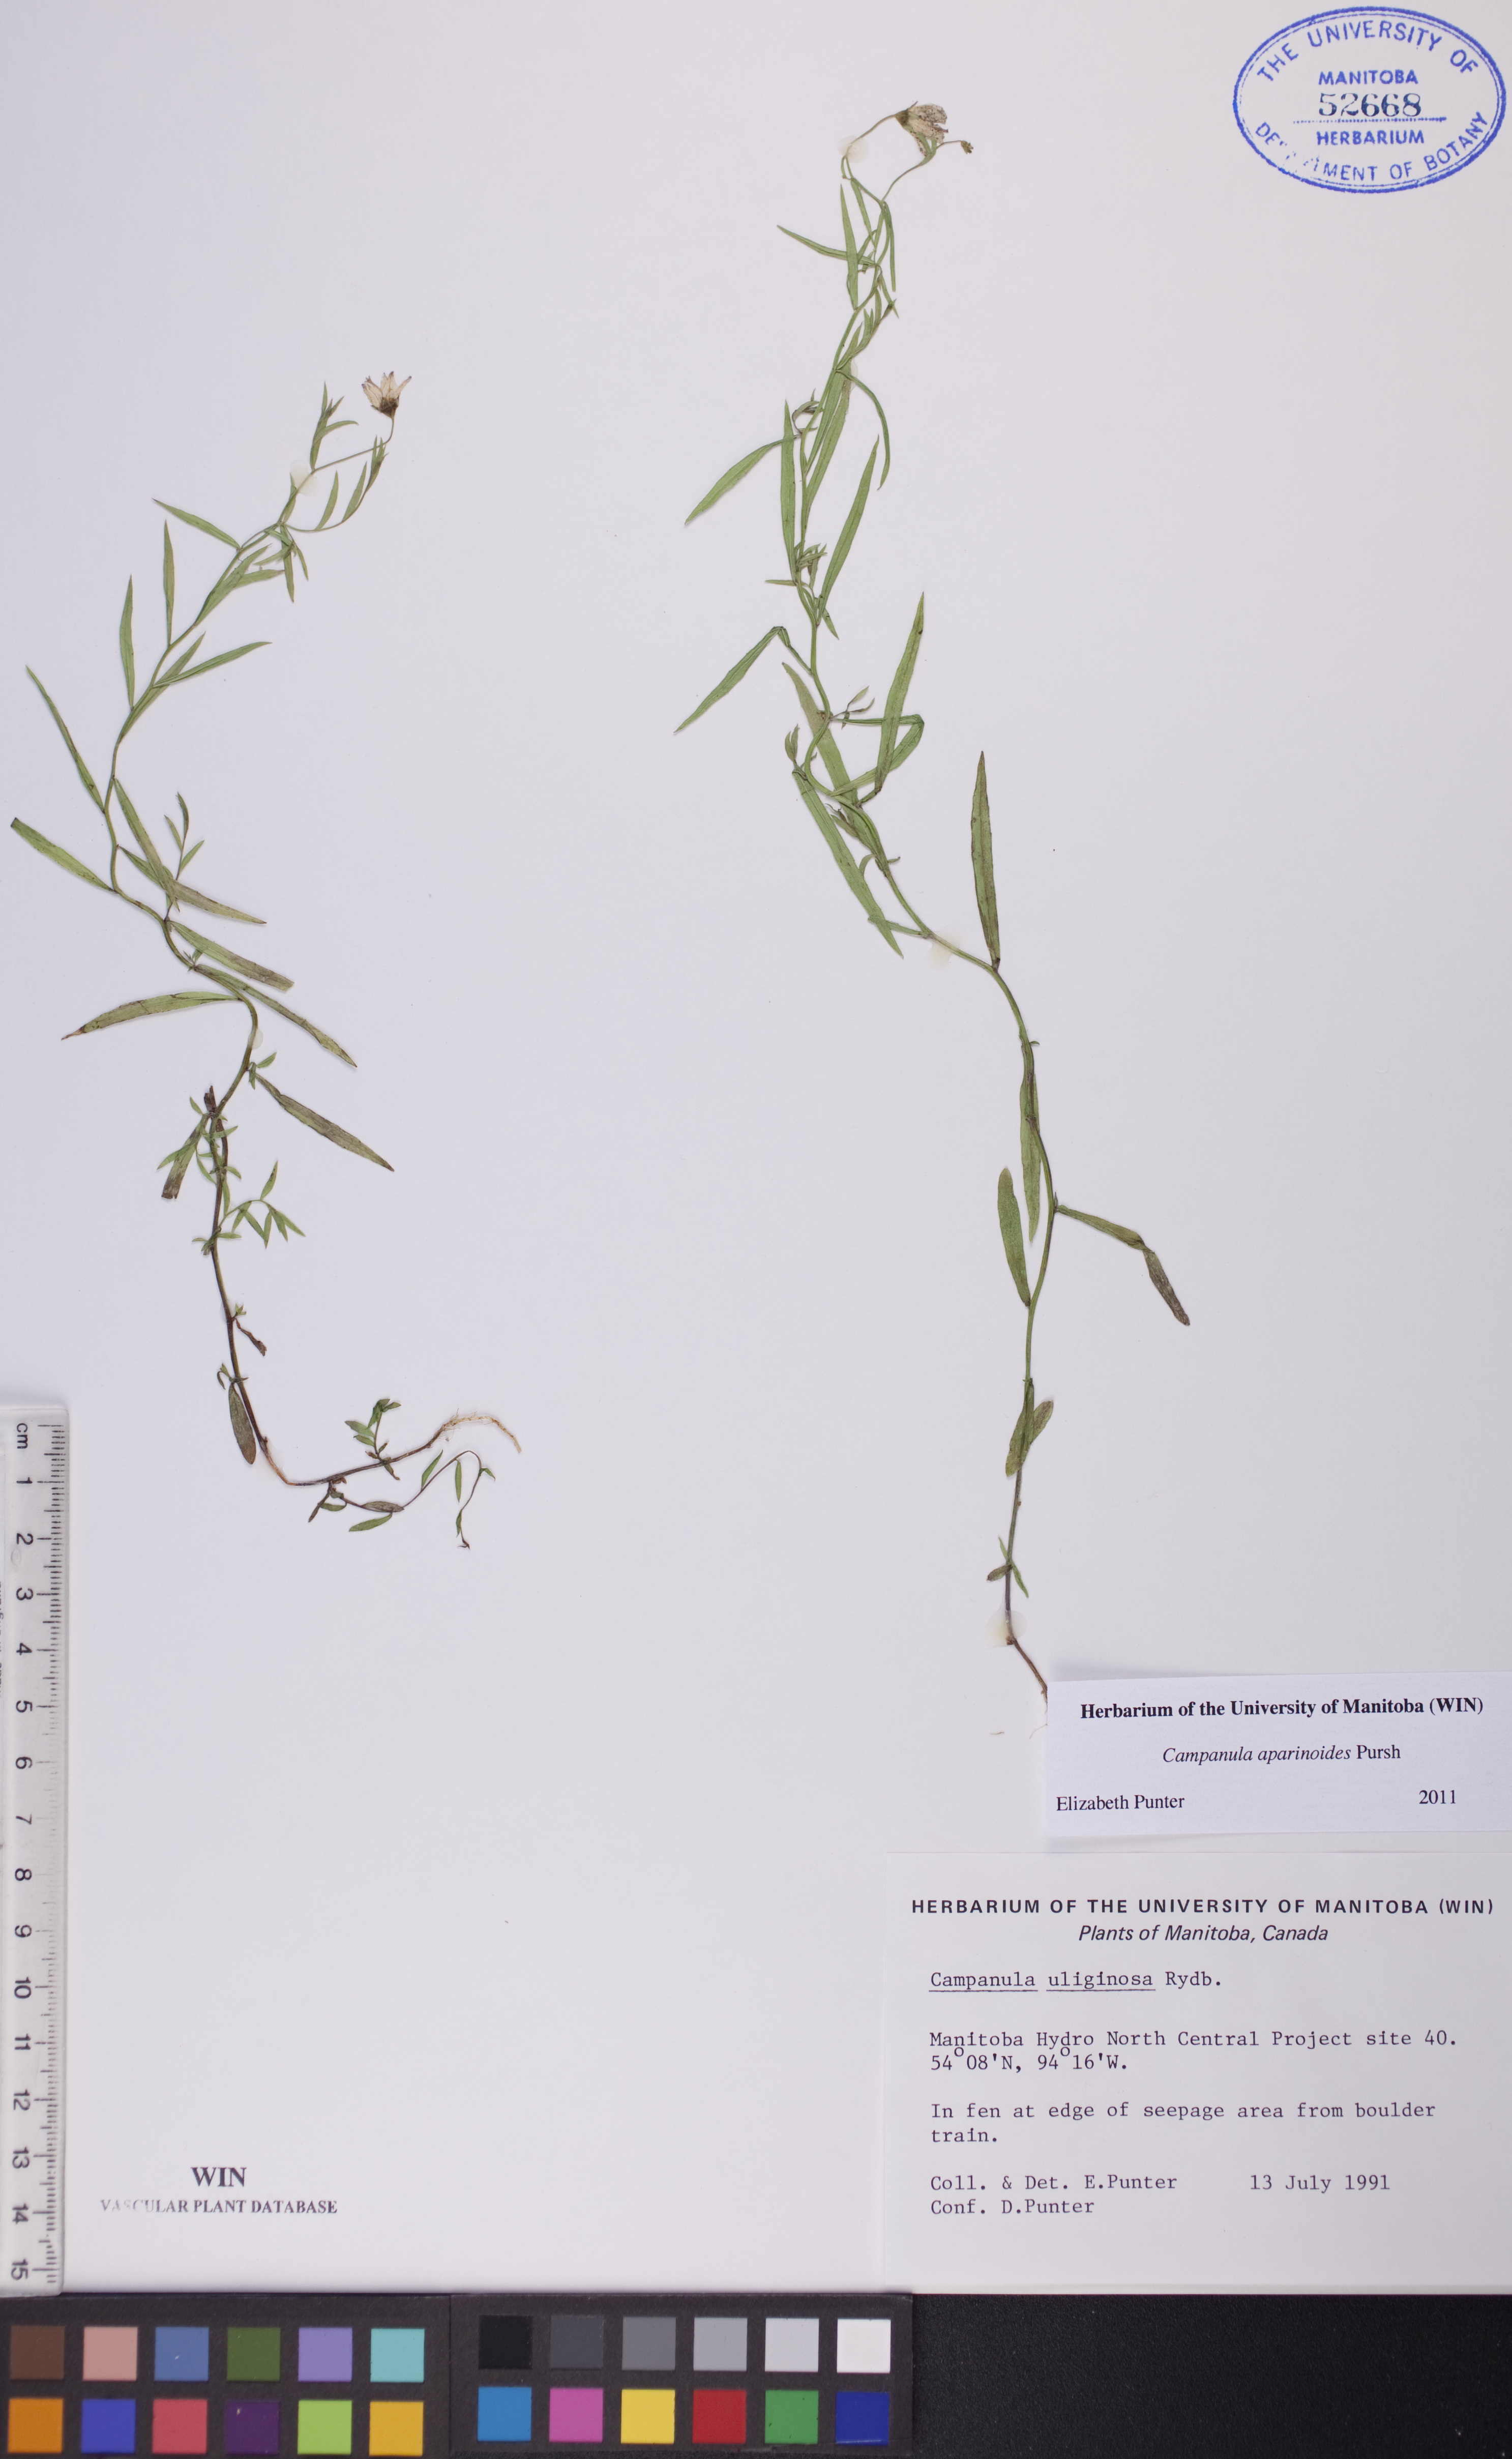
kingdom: Plantae
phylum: Tracheophyta
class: Magnoliopsida
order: Asterales
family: Campanulaceae
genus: Palustricodon
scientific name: Palustricodon aparinoides
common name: Bedstraw bellflower
